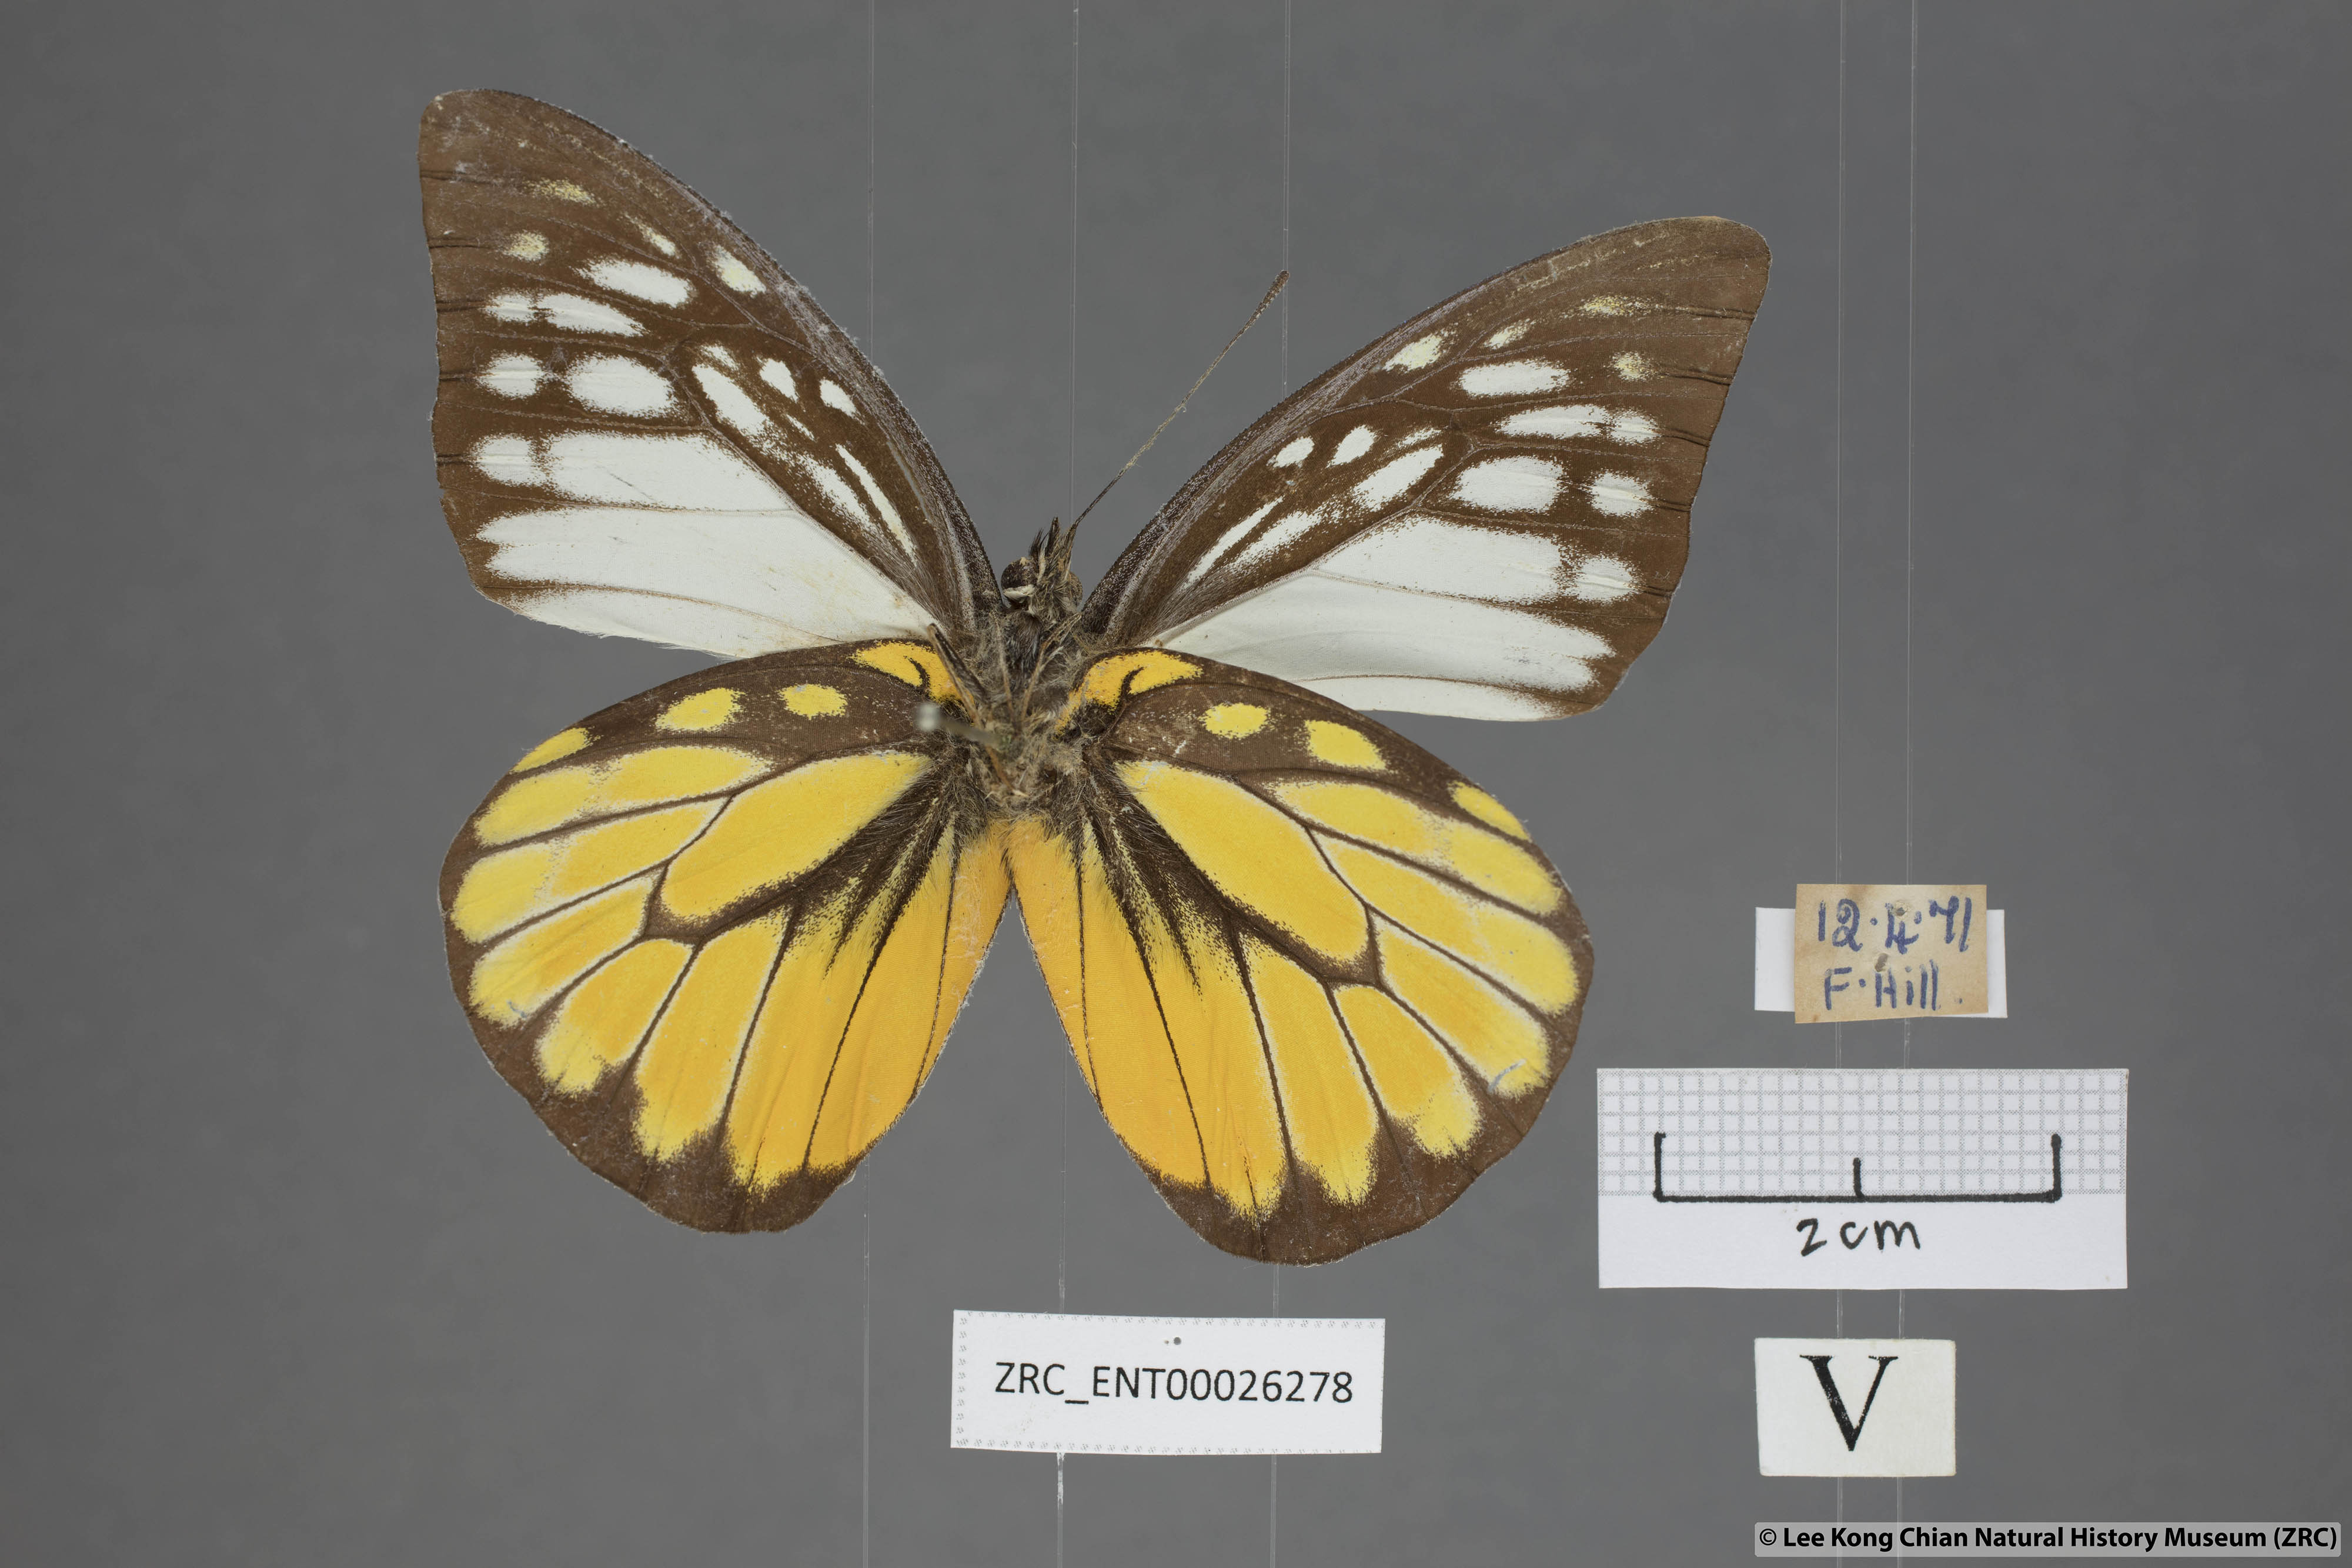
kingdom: Animalia
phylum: Arthropoda
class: Insecta
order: Lepidoptera
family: Pieridae
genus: Prioneris
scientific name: Prioneris thestylis
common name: Spotted sawtooth
